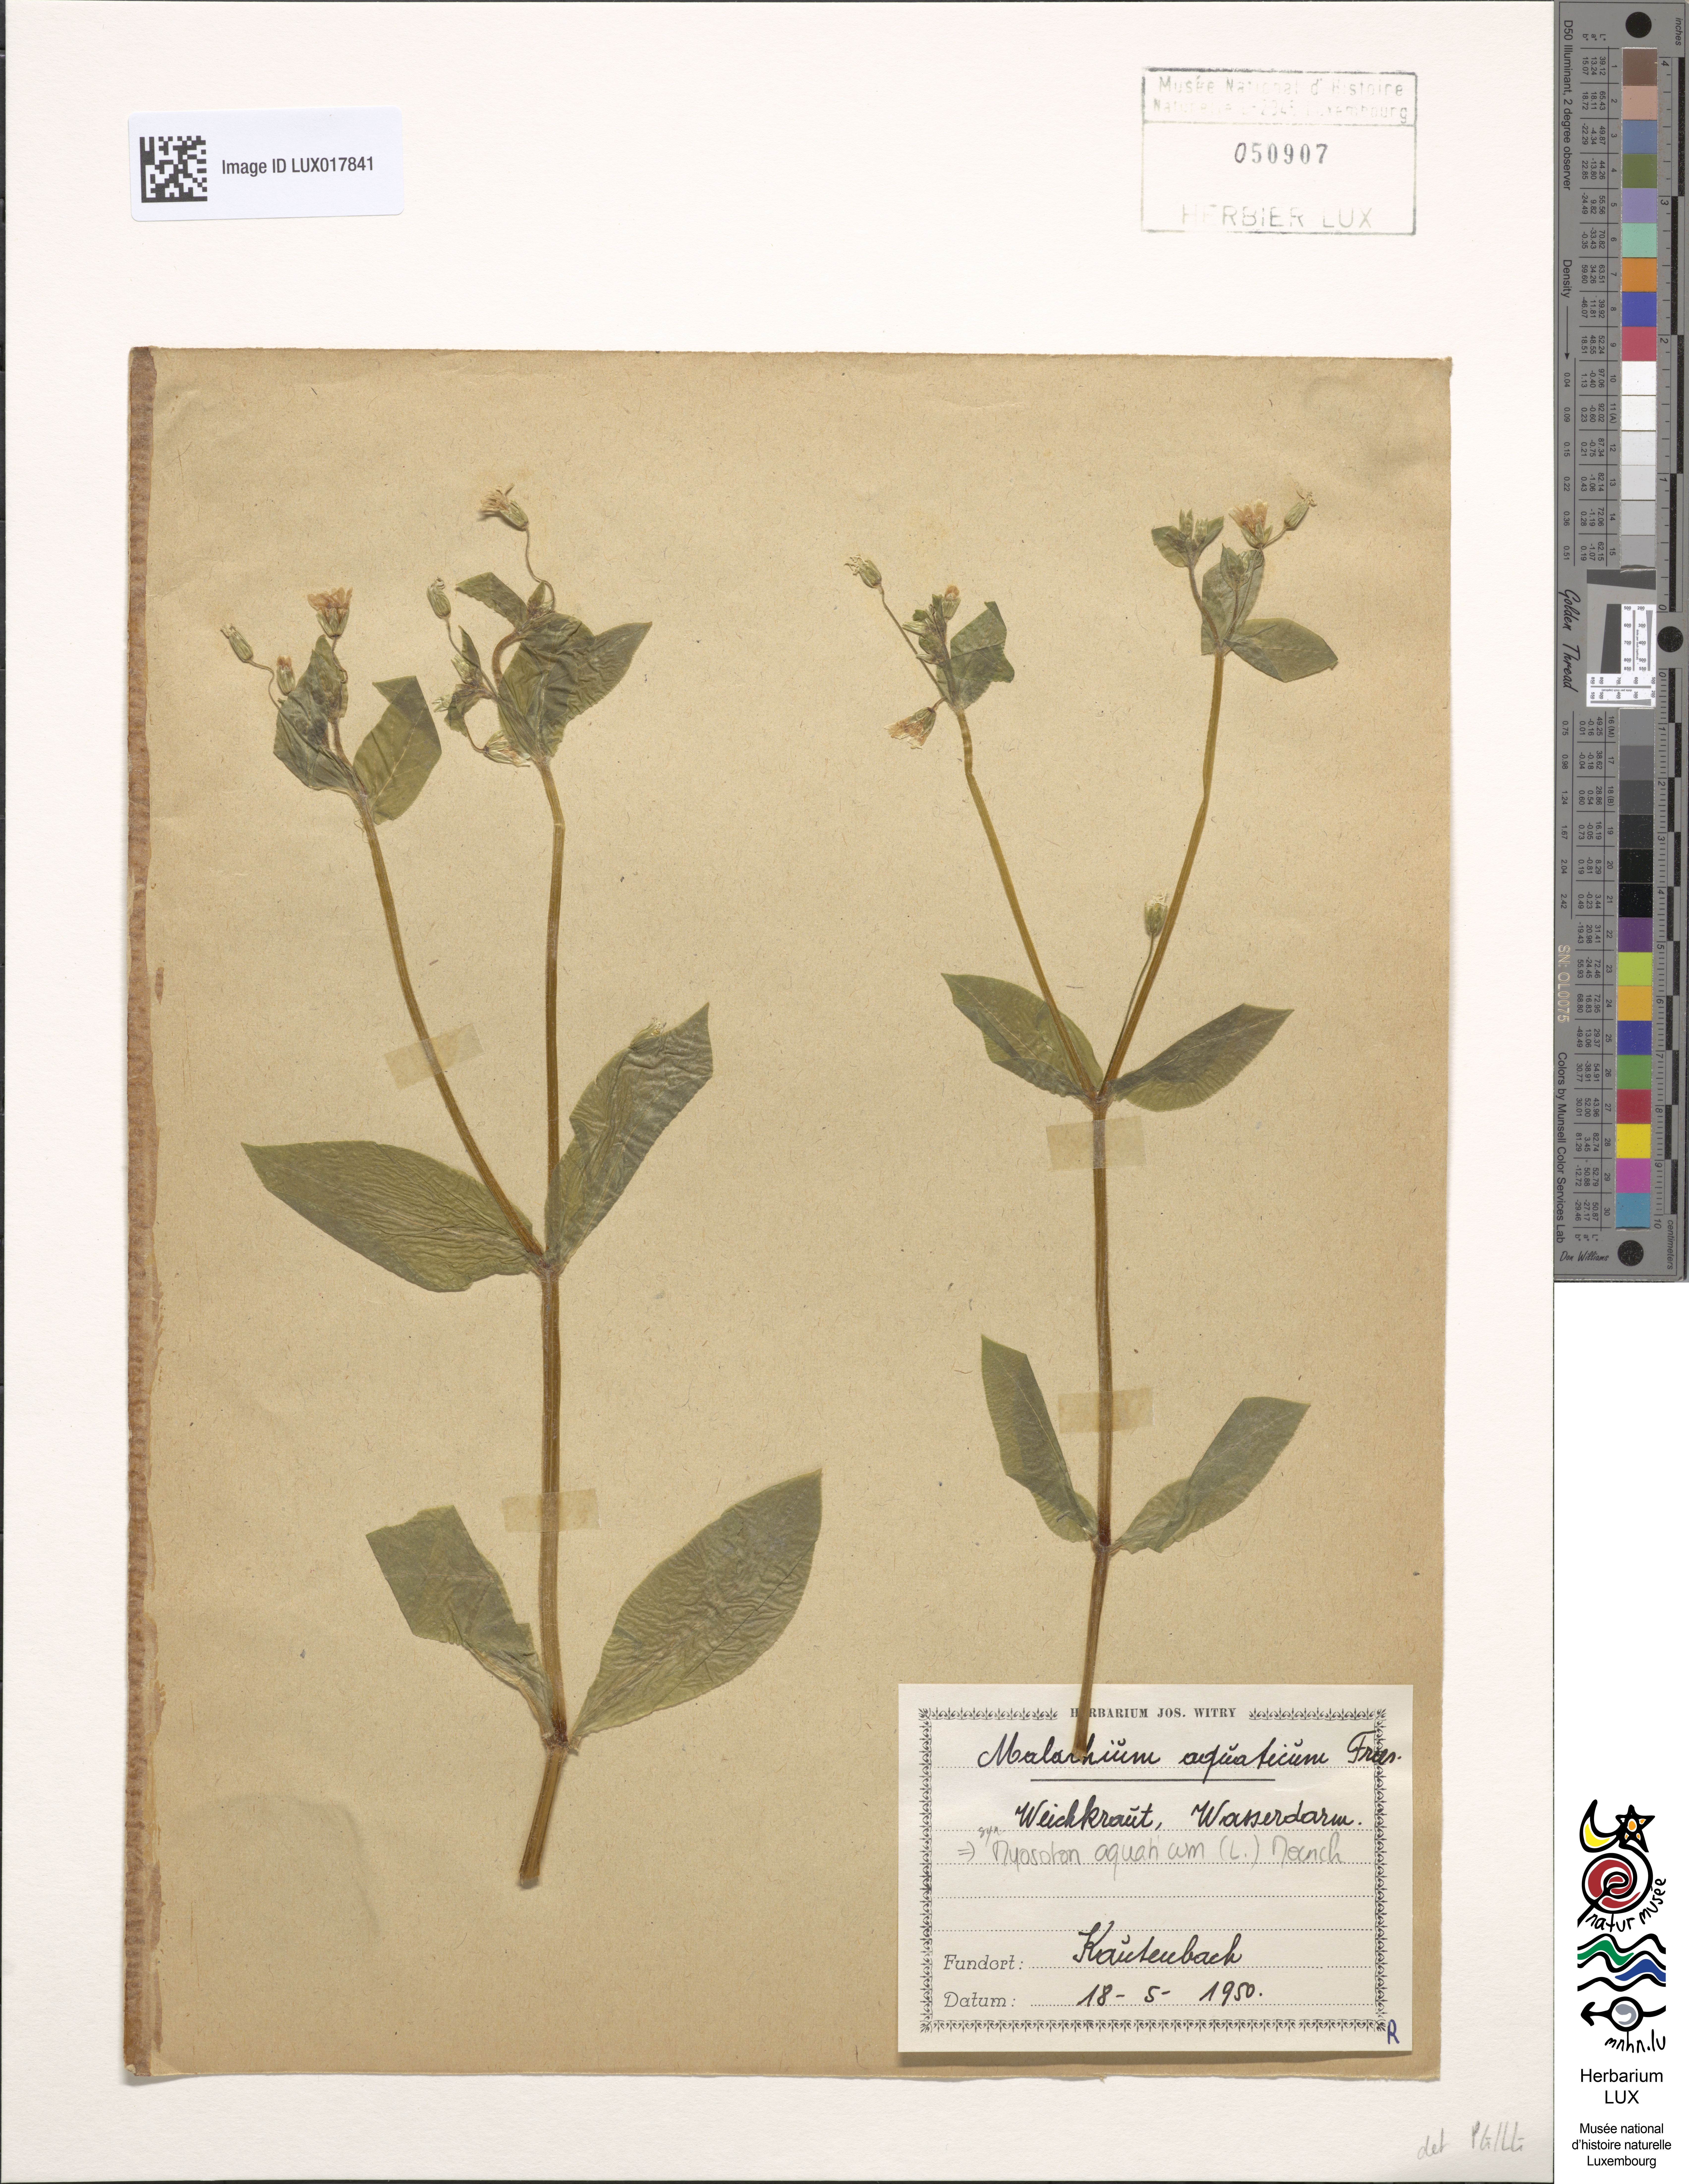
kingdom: Plantae
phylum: Tracheophyta
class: Magnoliopsida
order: Caryophyllales
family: Caryophyllaceae
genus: Stellaria
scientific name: Stellaria aquatica
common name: Water chickweed
